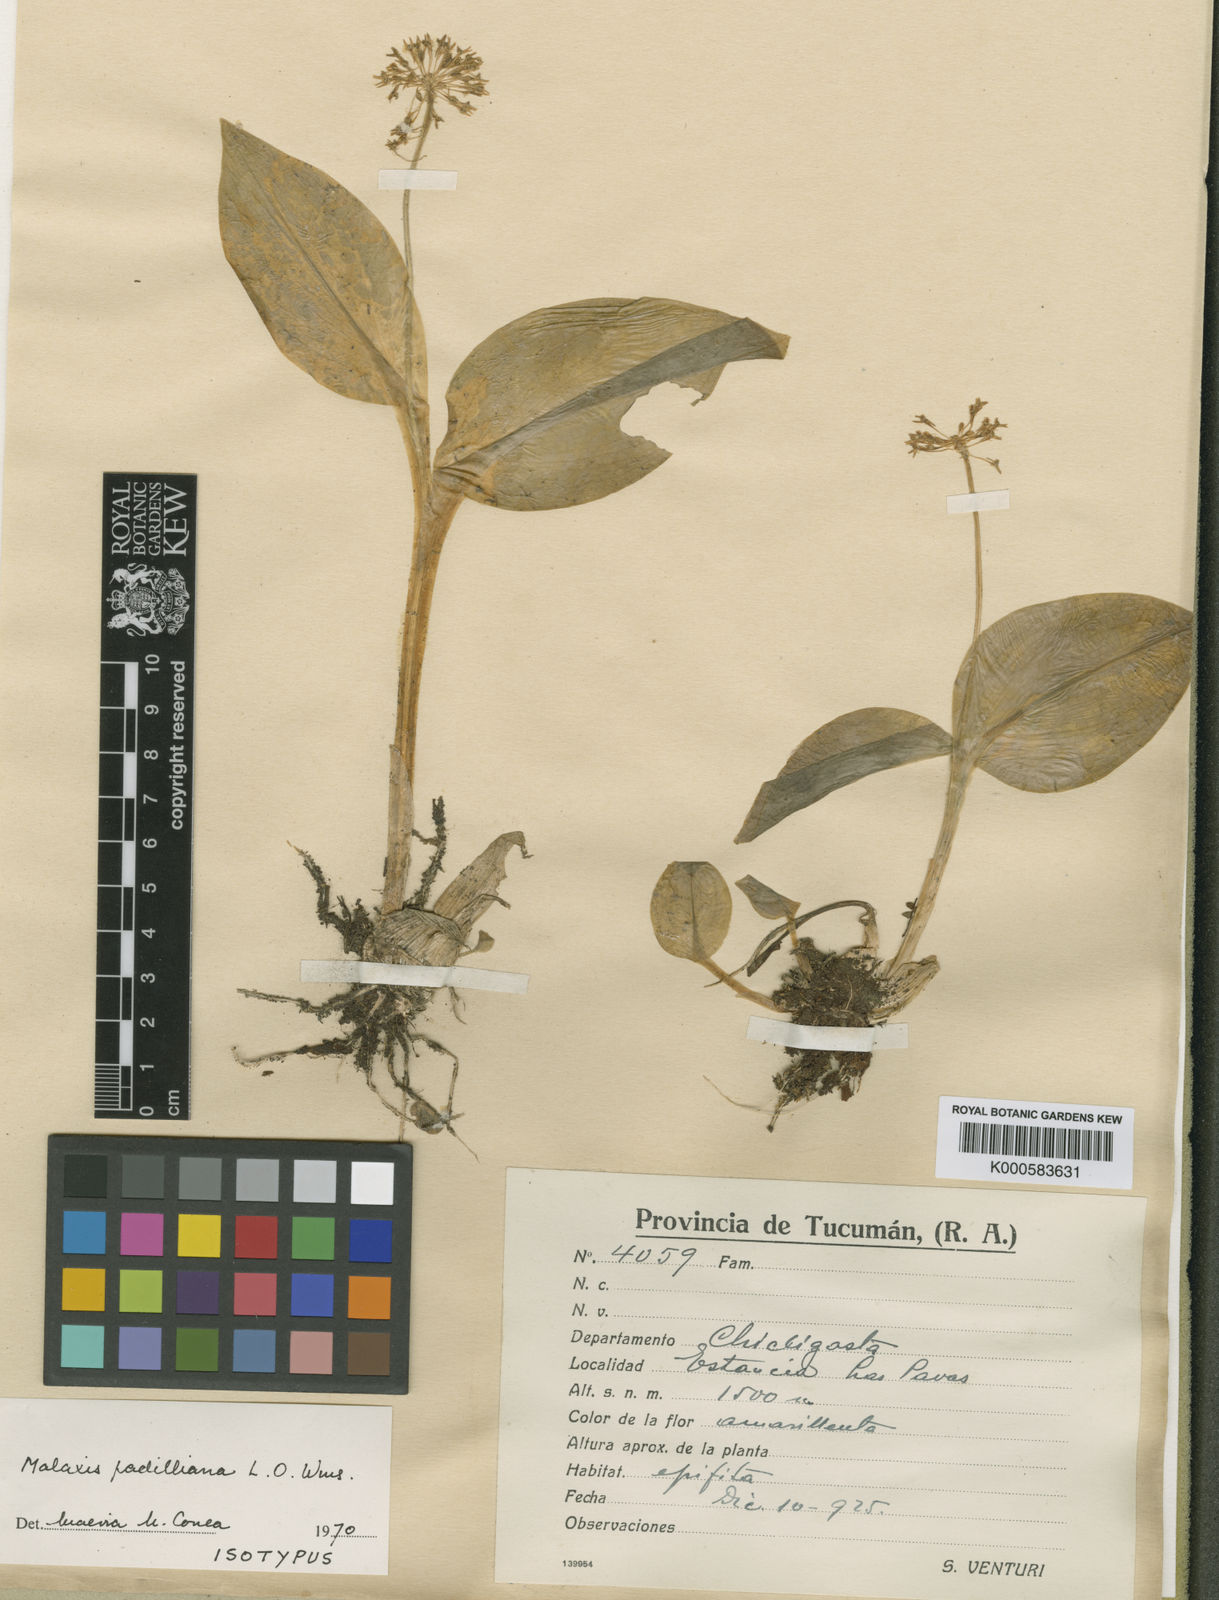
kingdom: Plantae
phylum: Tracheophyta
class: Liliopsida
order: Asparagales
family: Orchidaceae
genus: Malaxis
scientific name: Malaxis padilliana
